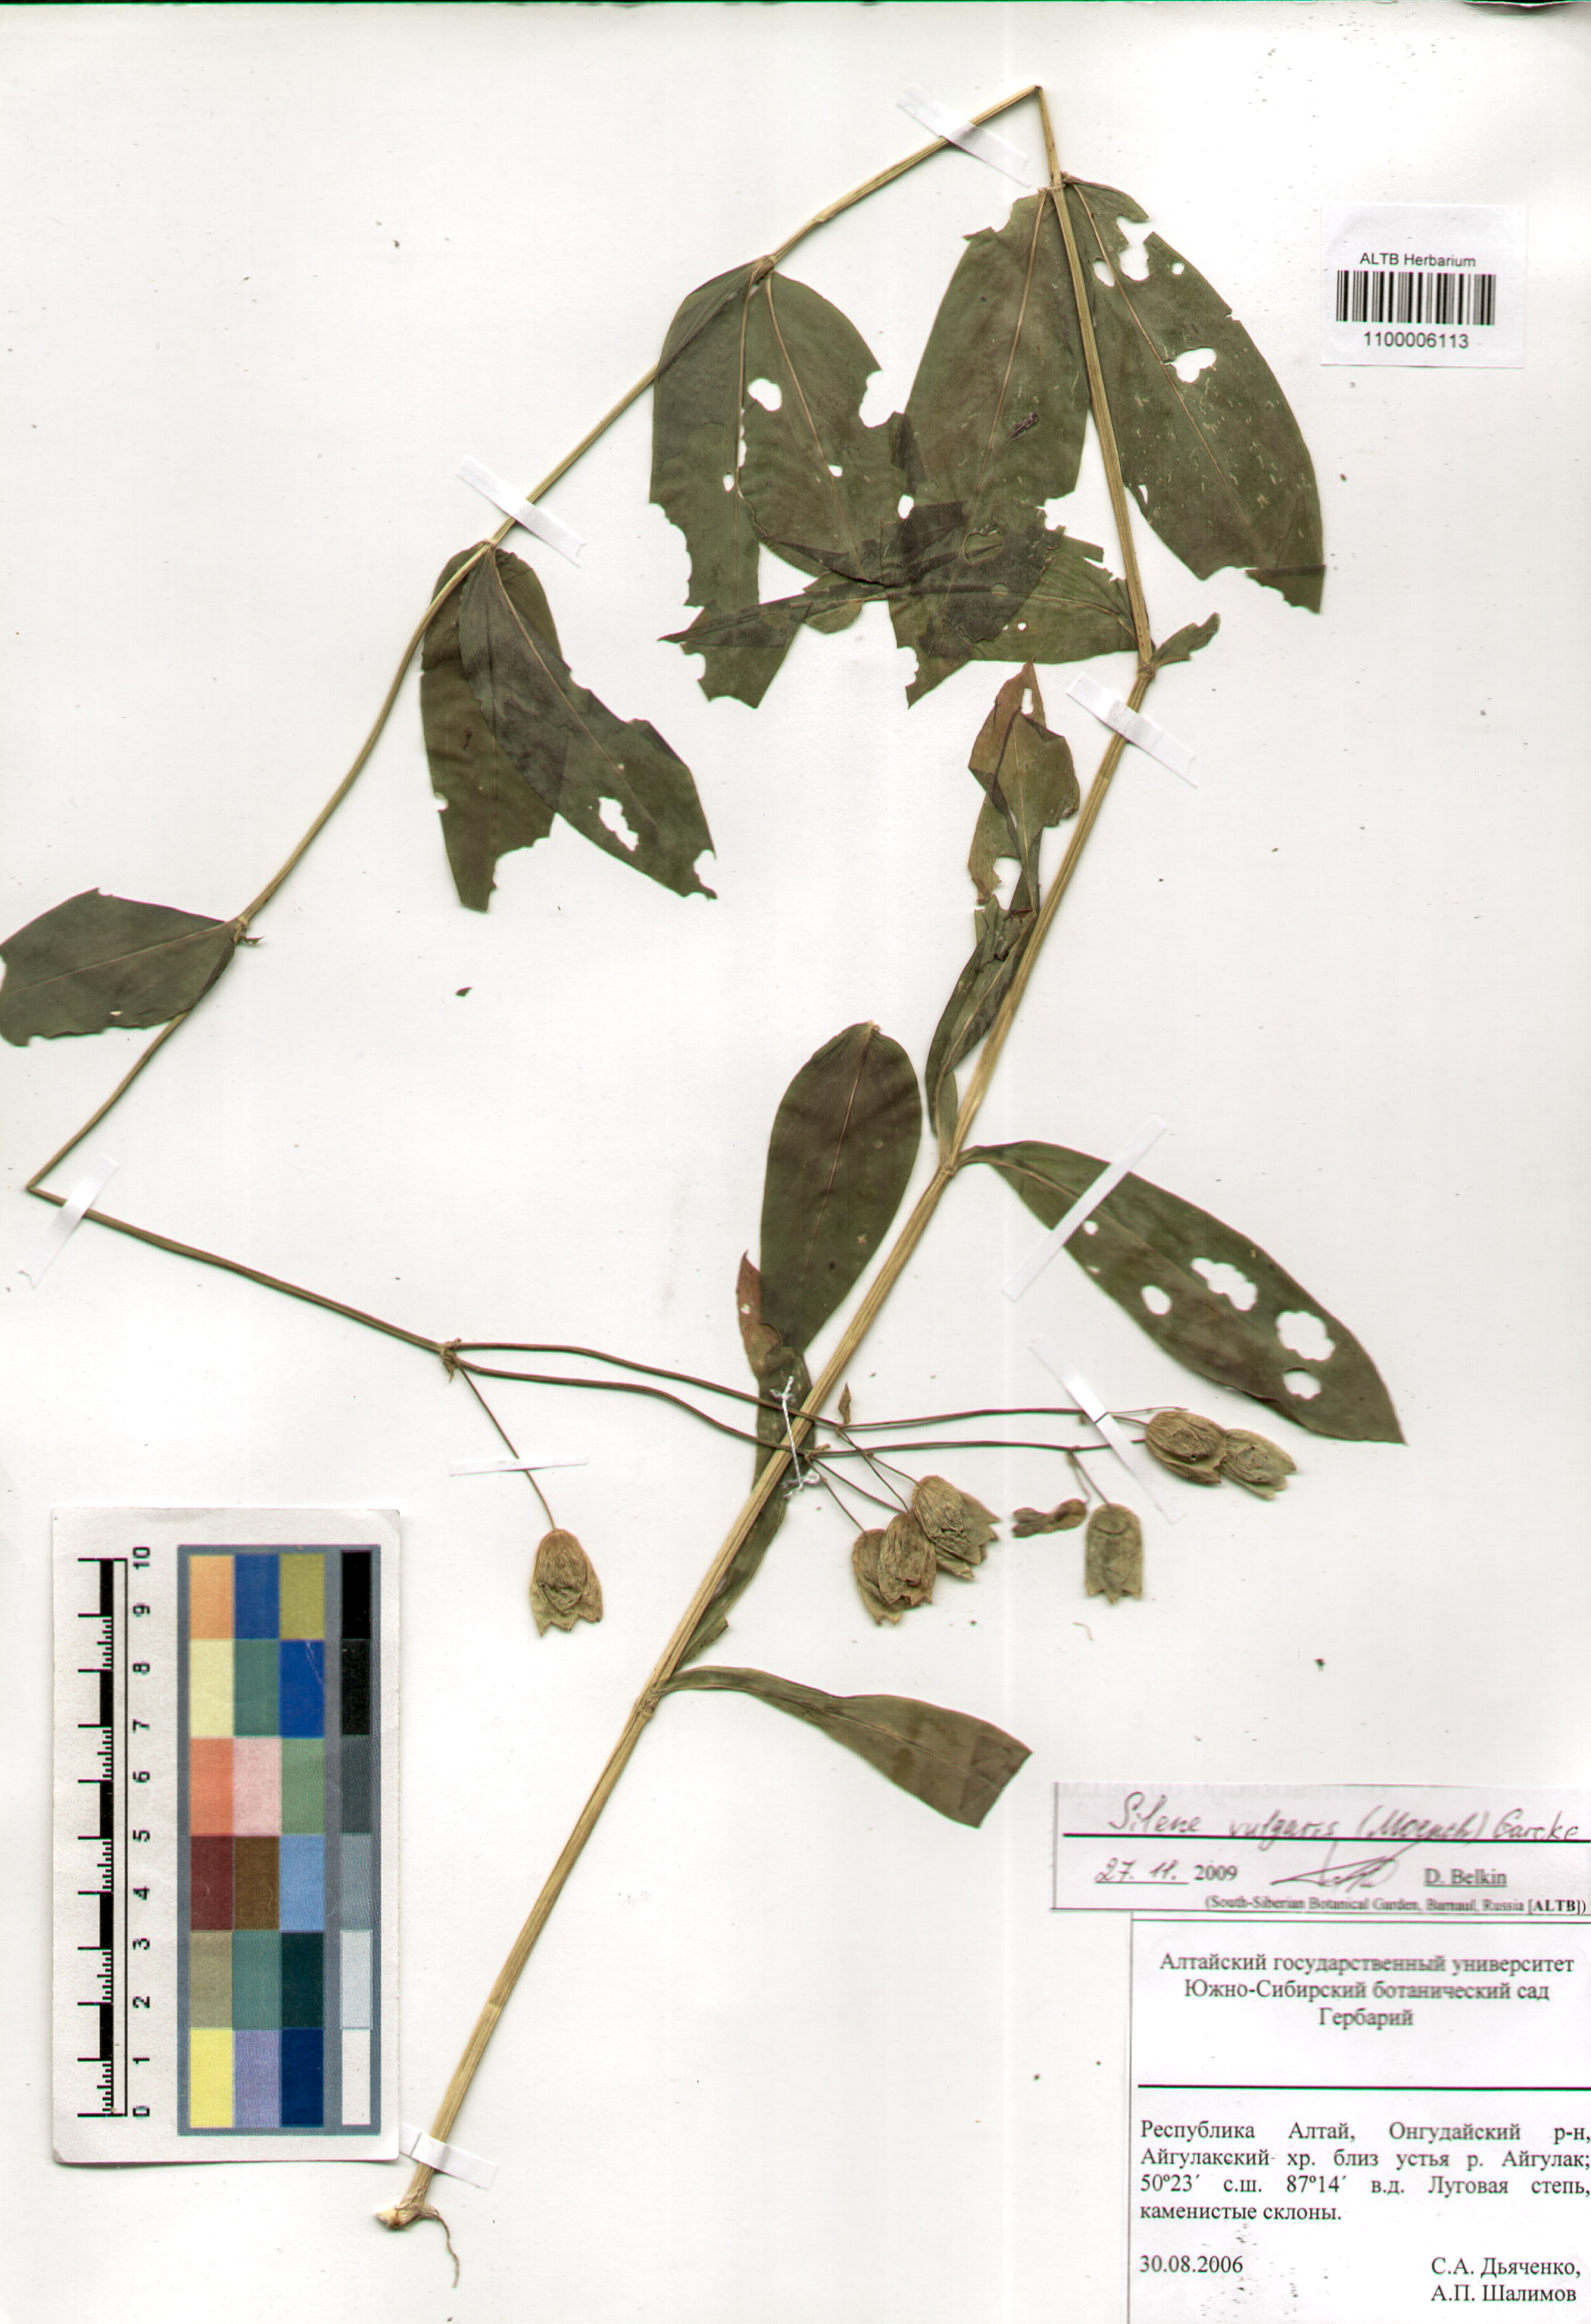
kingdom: Plantae
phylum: Tracheophyta
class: Magnoliopsida
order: Caryophyllales
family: Caryophyllaceae
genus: Silene
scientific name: Silene vulgaris
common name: Bladder campion
